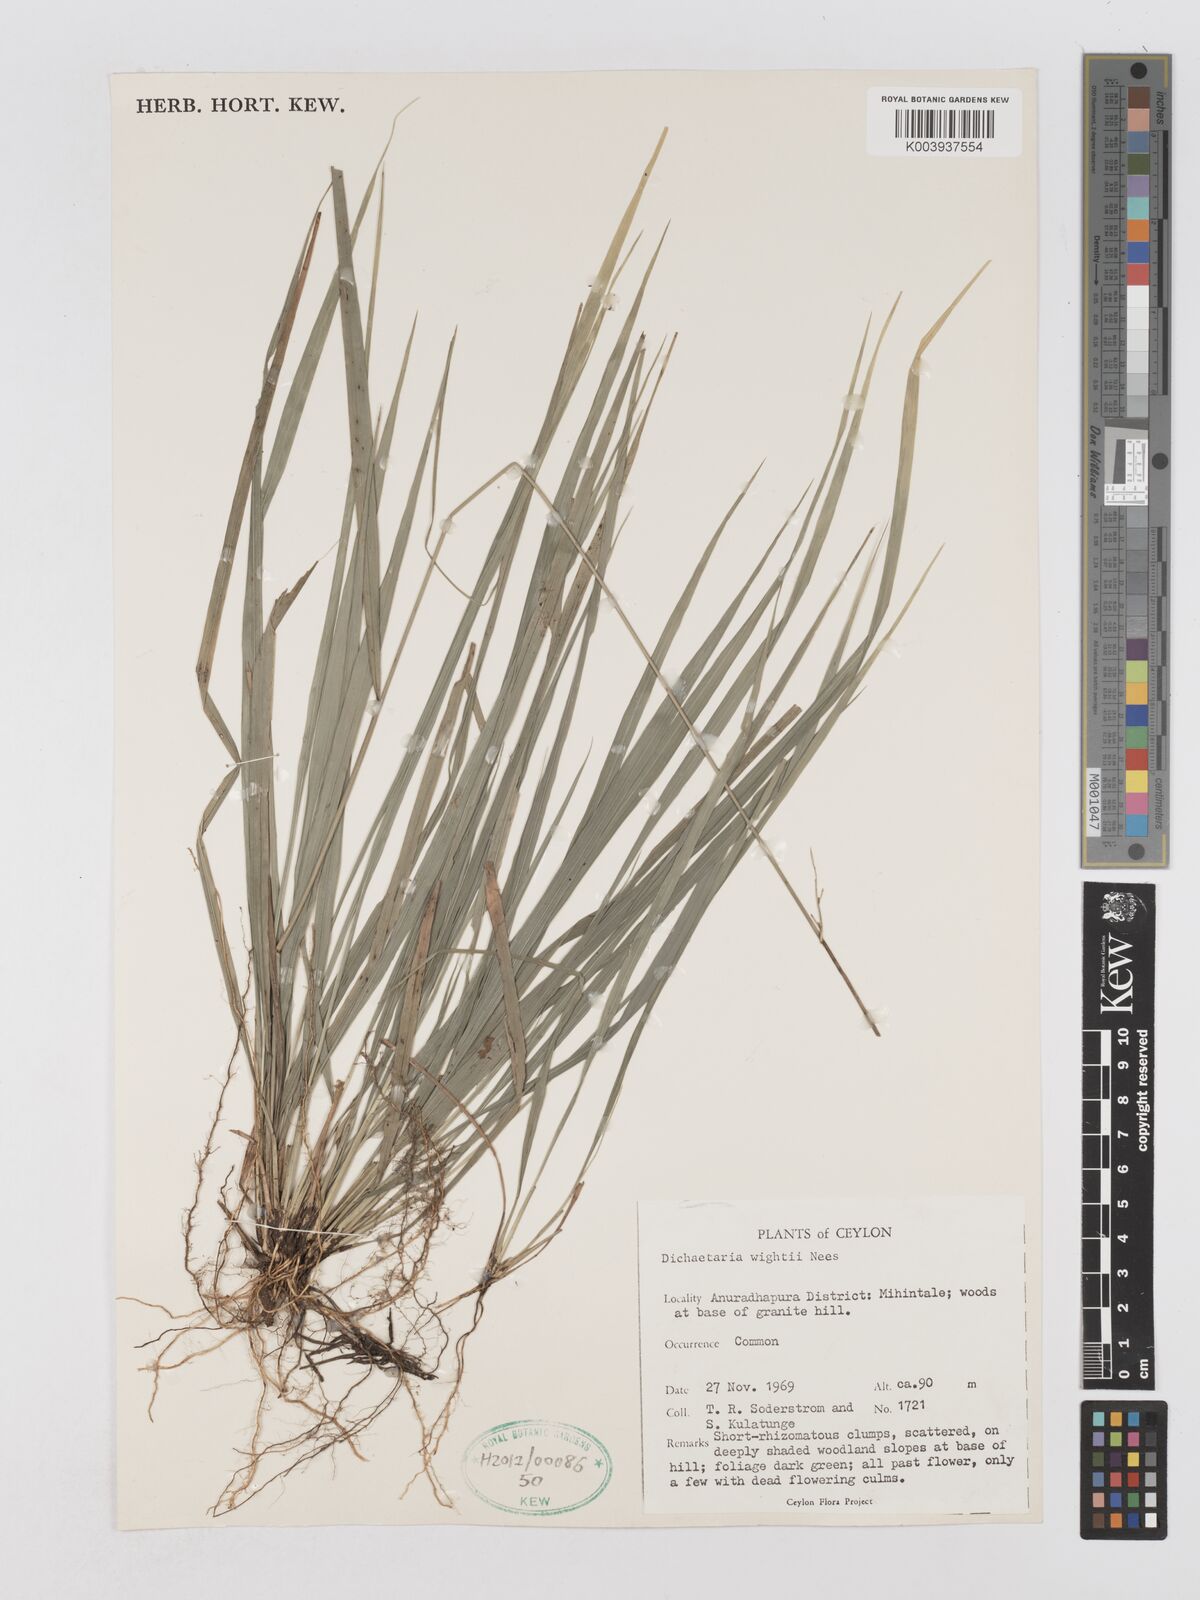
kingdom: Plantae
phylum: Tracheophyta
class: Liliopsida
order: Poales
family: Poaceae
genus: Dichaetaria
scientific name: Dichaetaria wightii
